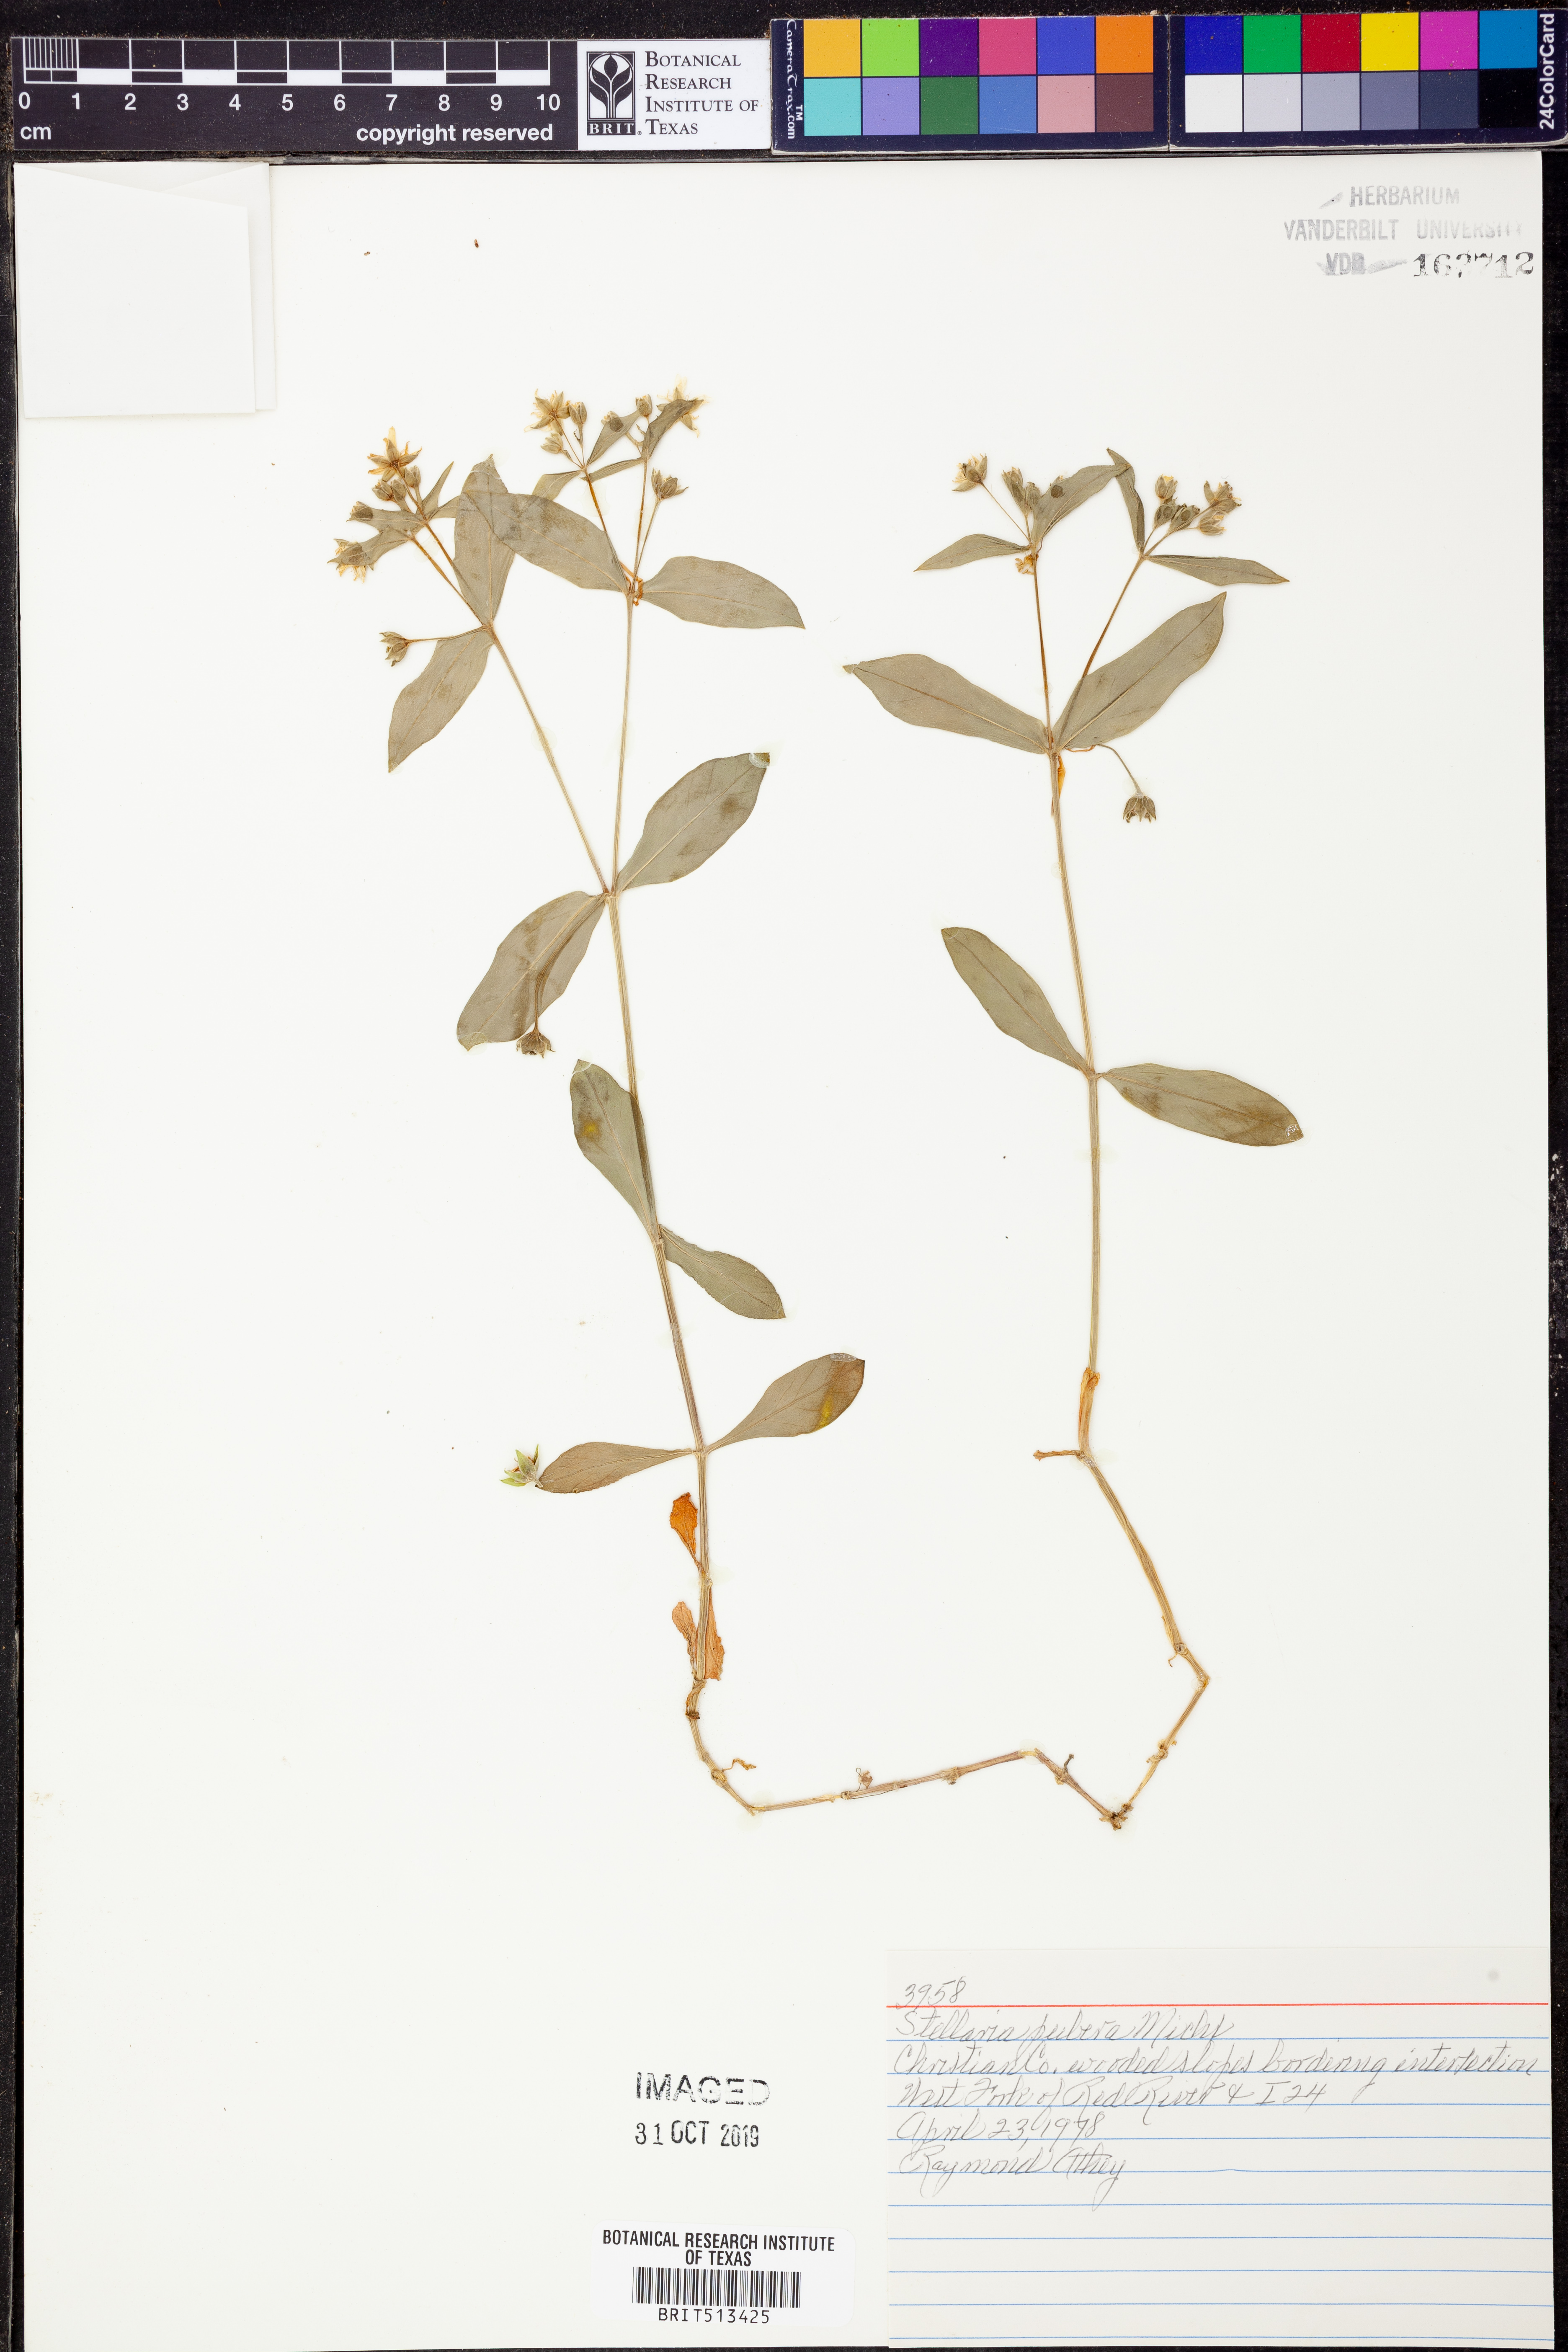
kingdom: Plantae
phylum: Tracheophyta
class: Magnoliopsida
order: Caryophyllales
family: Caryophyllaceae
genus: Stellaria
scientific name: Stellaria pubera
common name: Star chickweed
